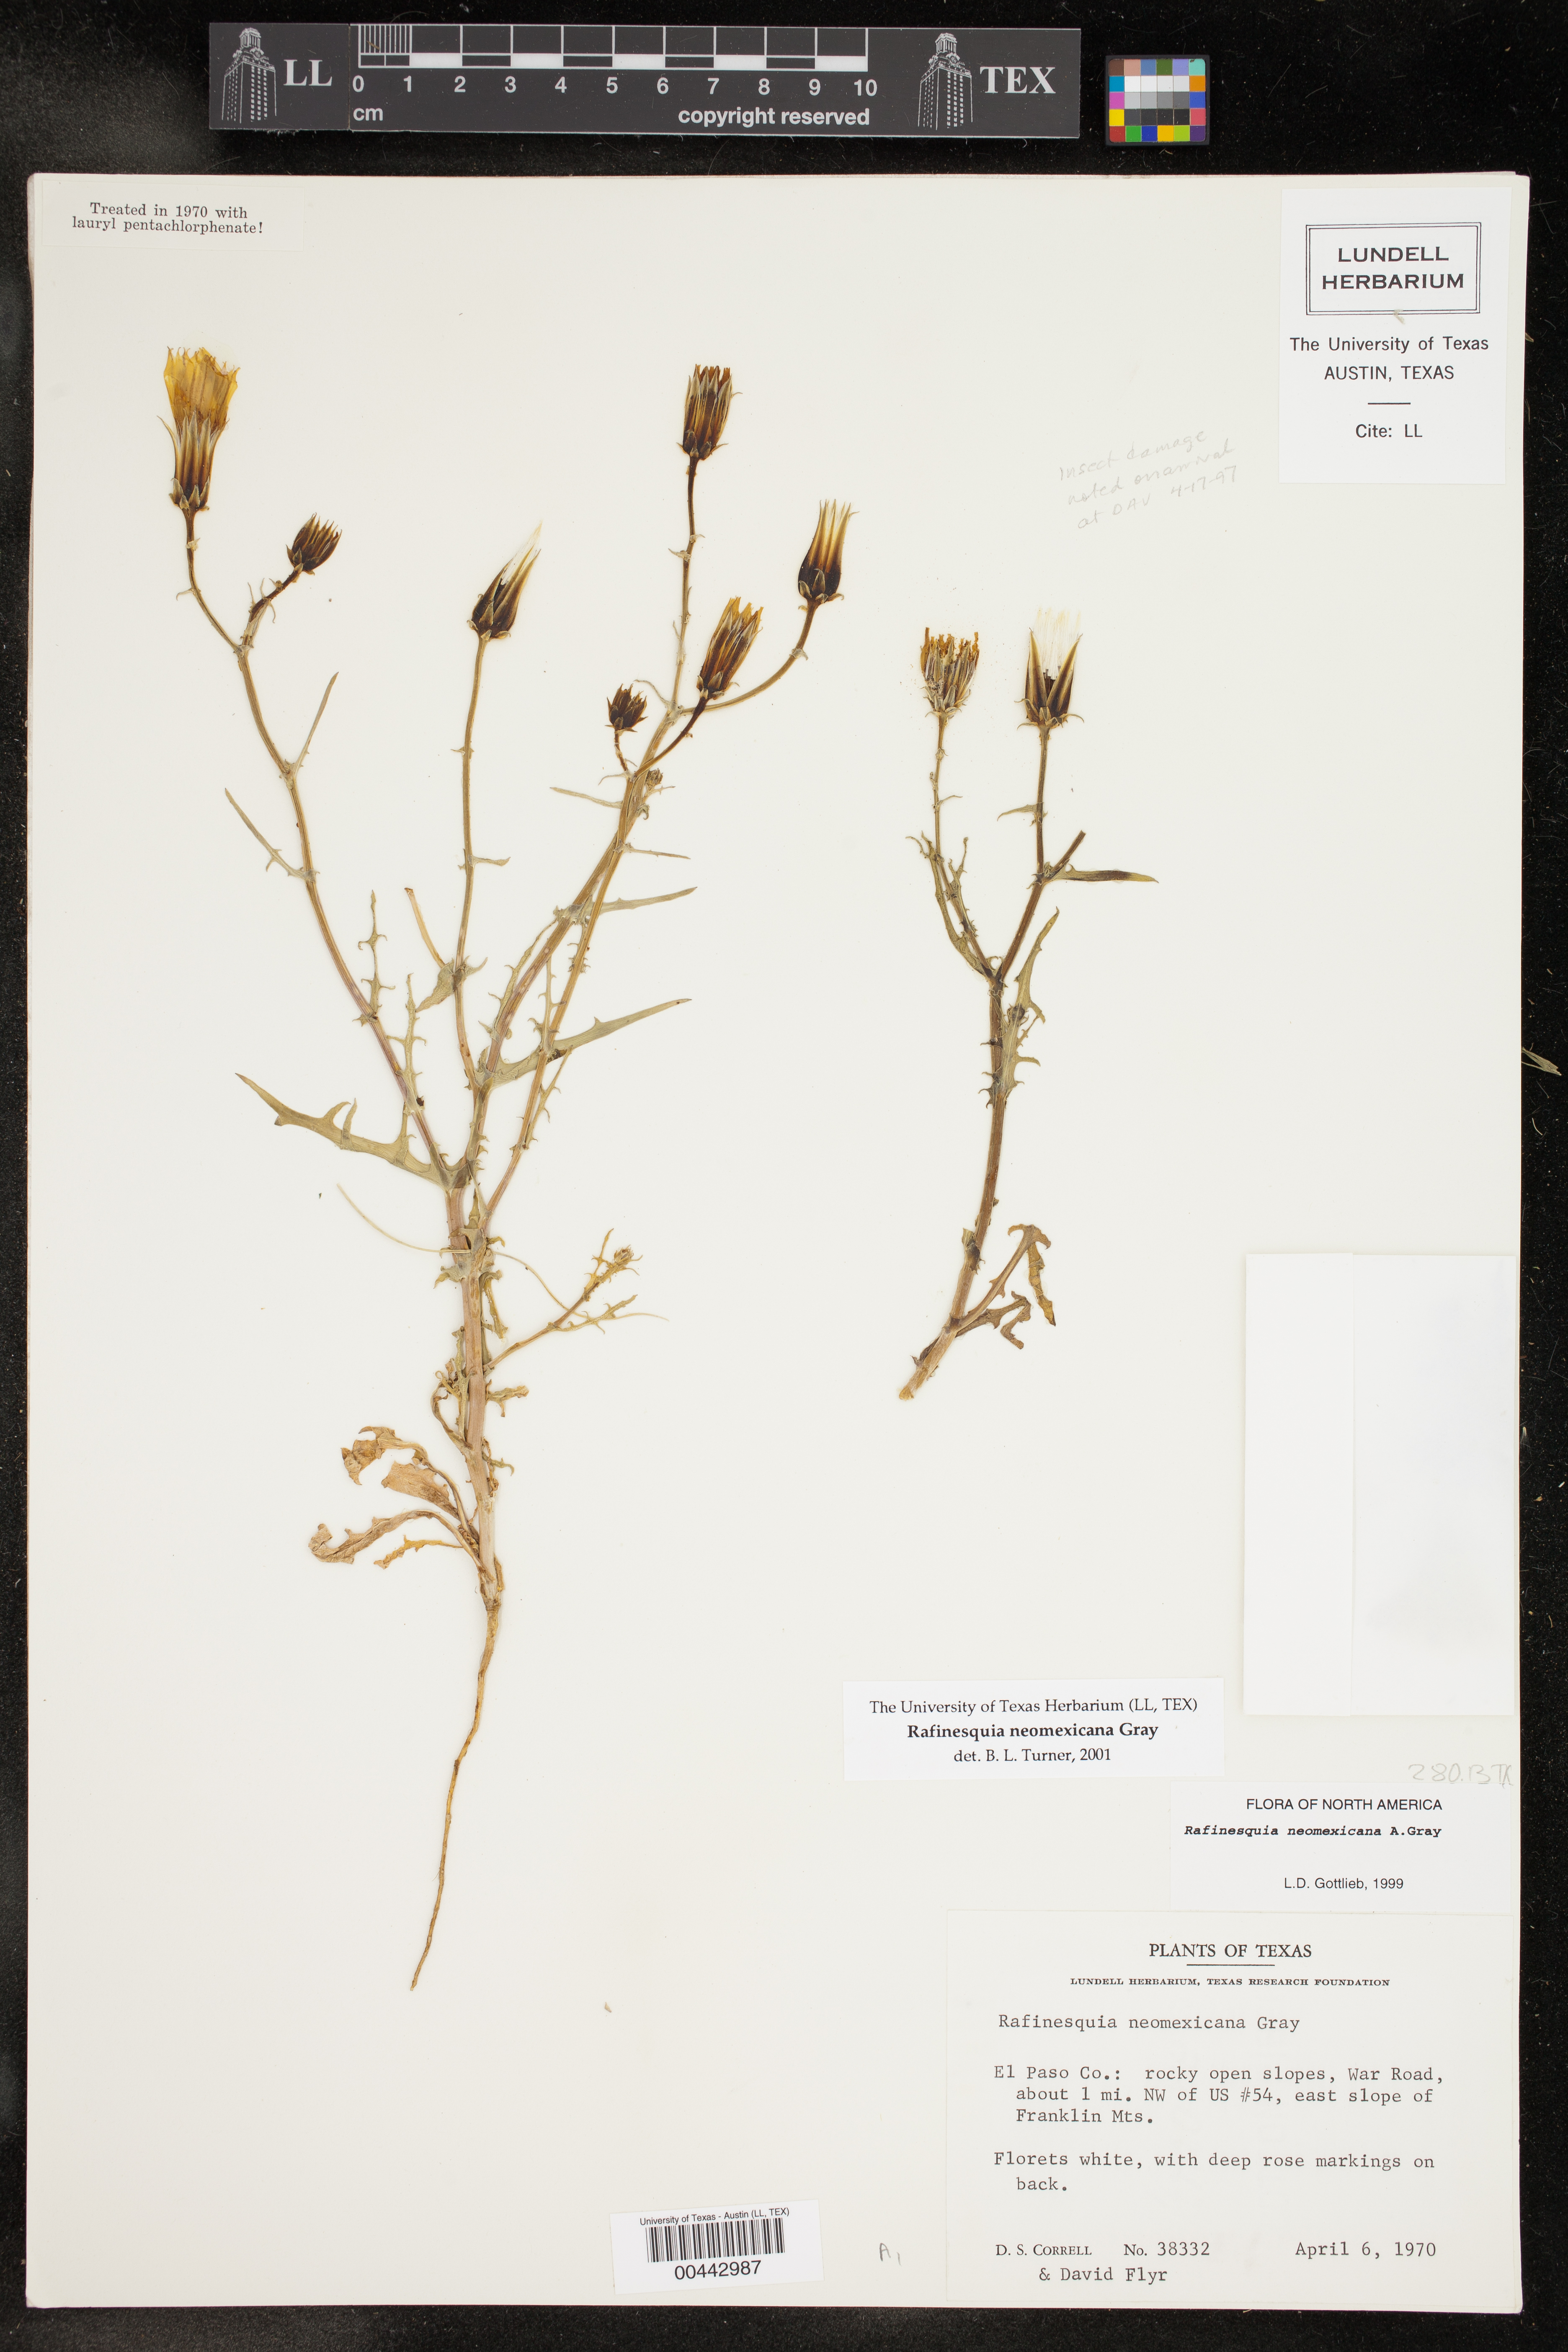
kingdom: Plantae
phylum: Tracheophyta
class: Magnoliopsida
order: Asterales
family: Asteraceae
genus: Rafinesquia
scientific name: Rafinesquia neomexicana
